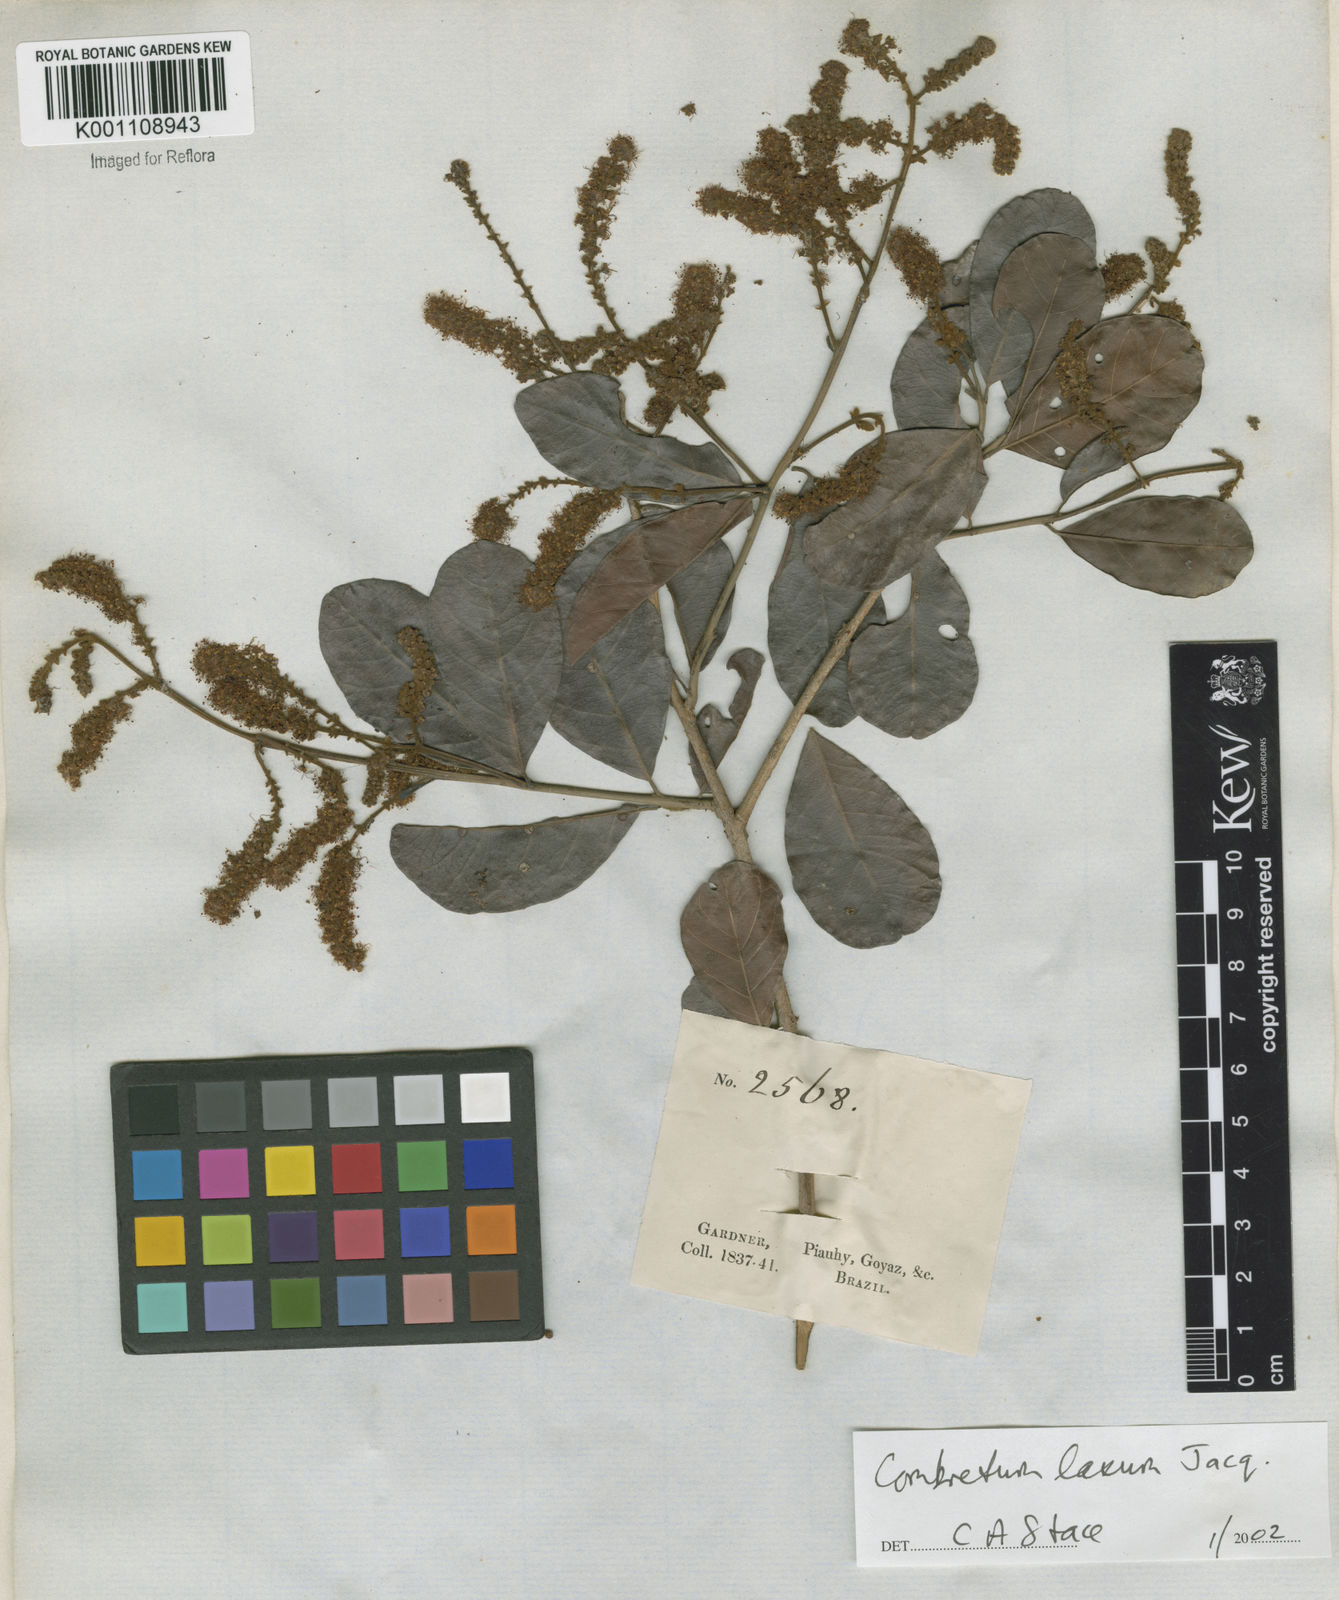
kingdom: Plantae
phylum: Tracheophyta
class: Magnoliopsida
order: Myrtales
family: Combretaceae
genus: Combretum
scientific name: Combretum laxum
